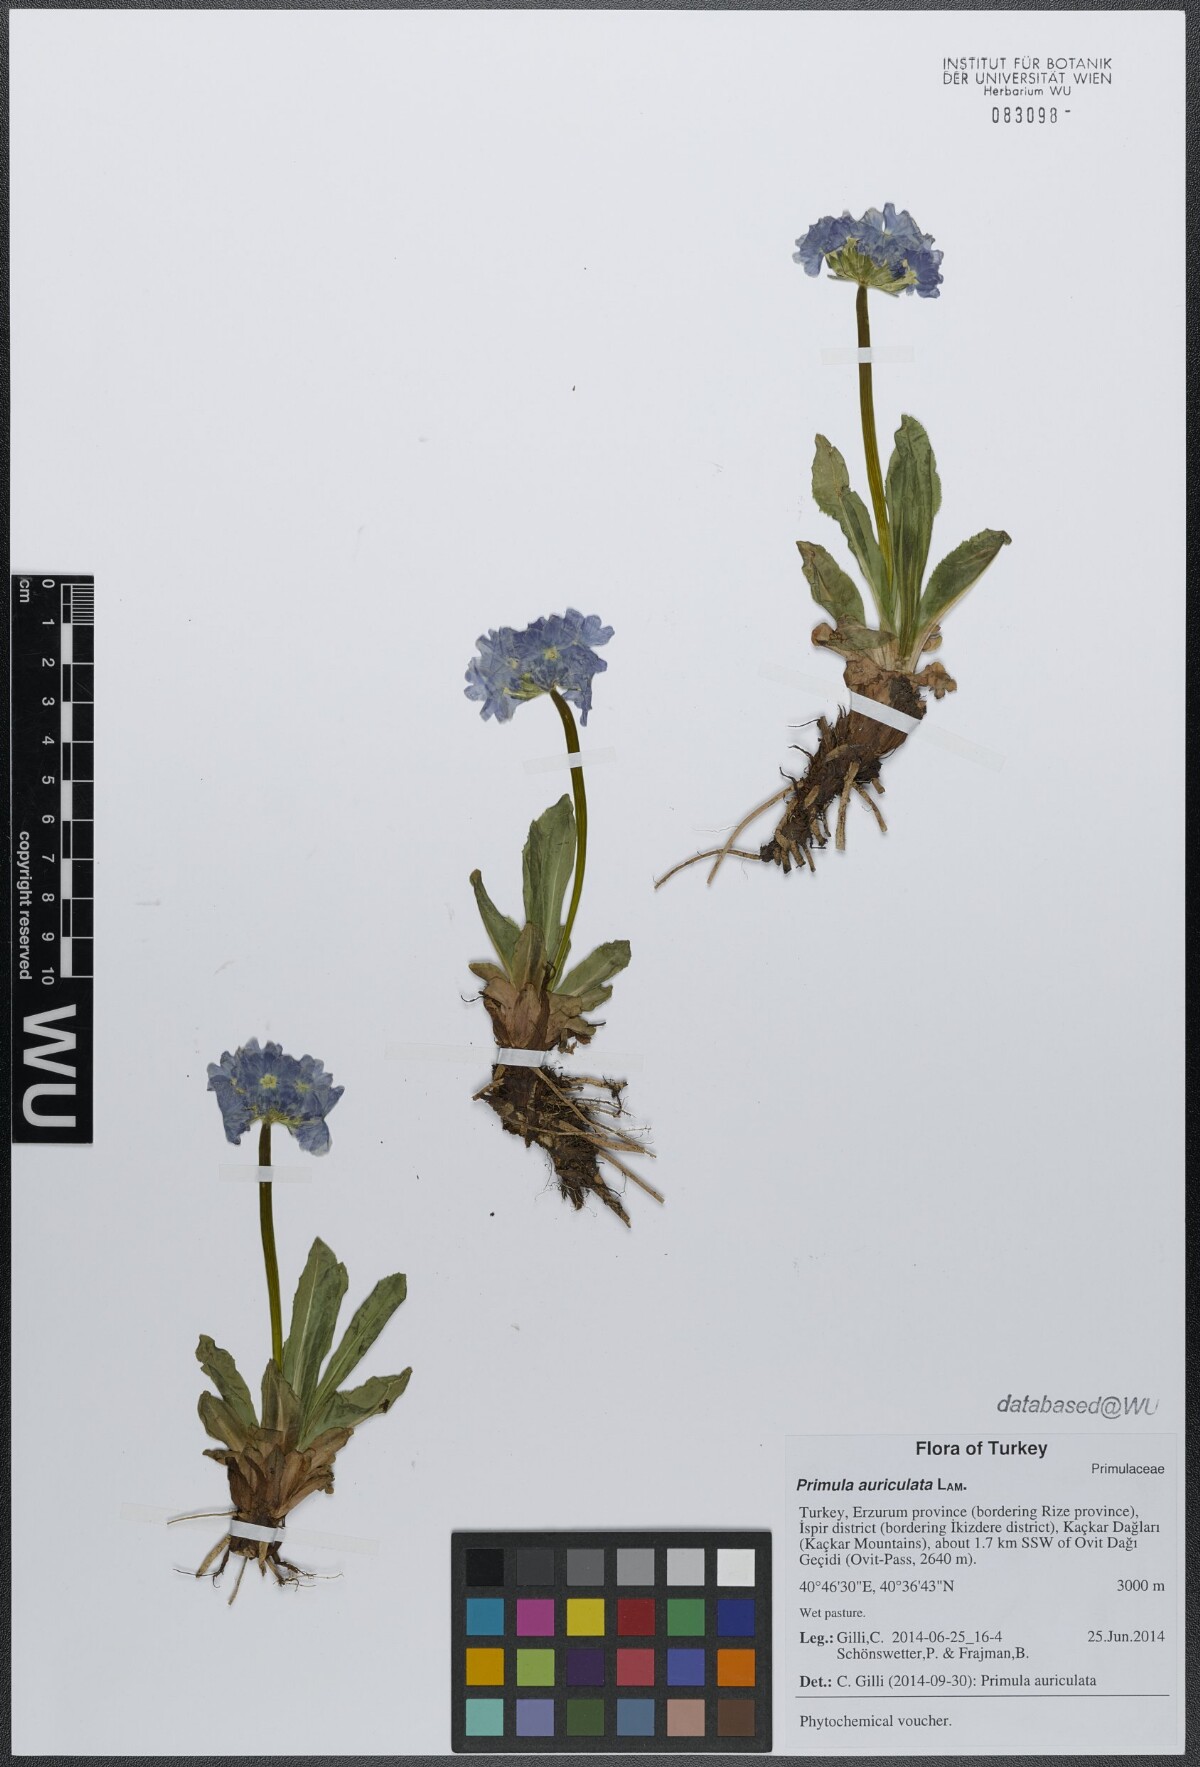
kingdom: Plantae
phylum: Tracheophyta
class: Magnoliopsida
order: Ericales
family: Primulaceae
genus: Primula
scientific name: Primula auriculata
